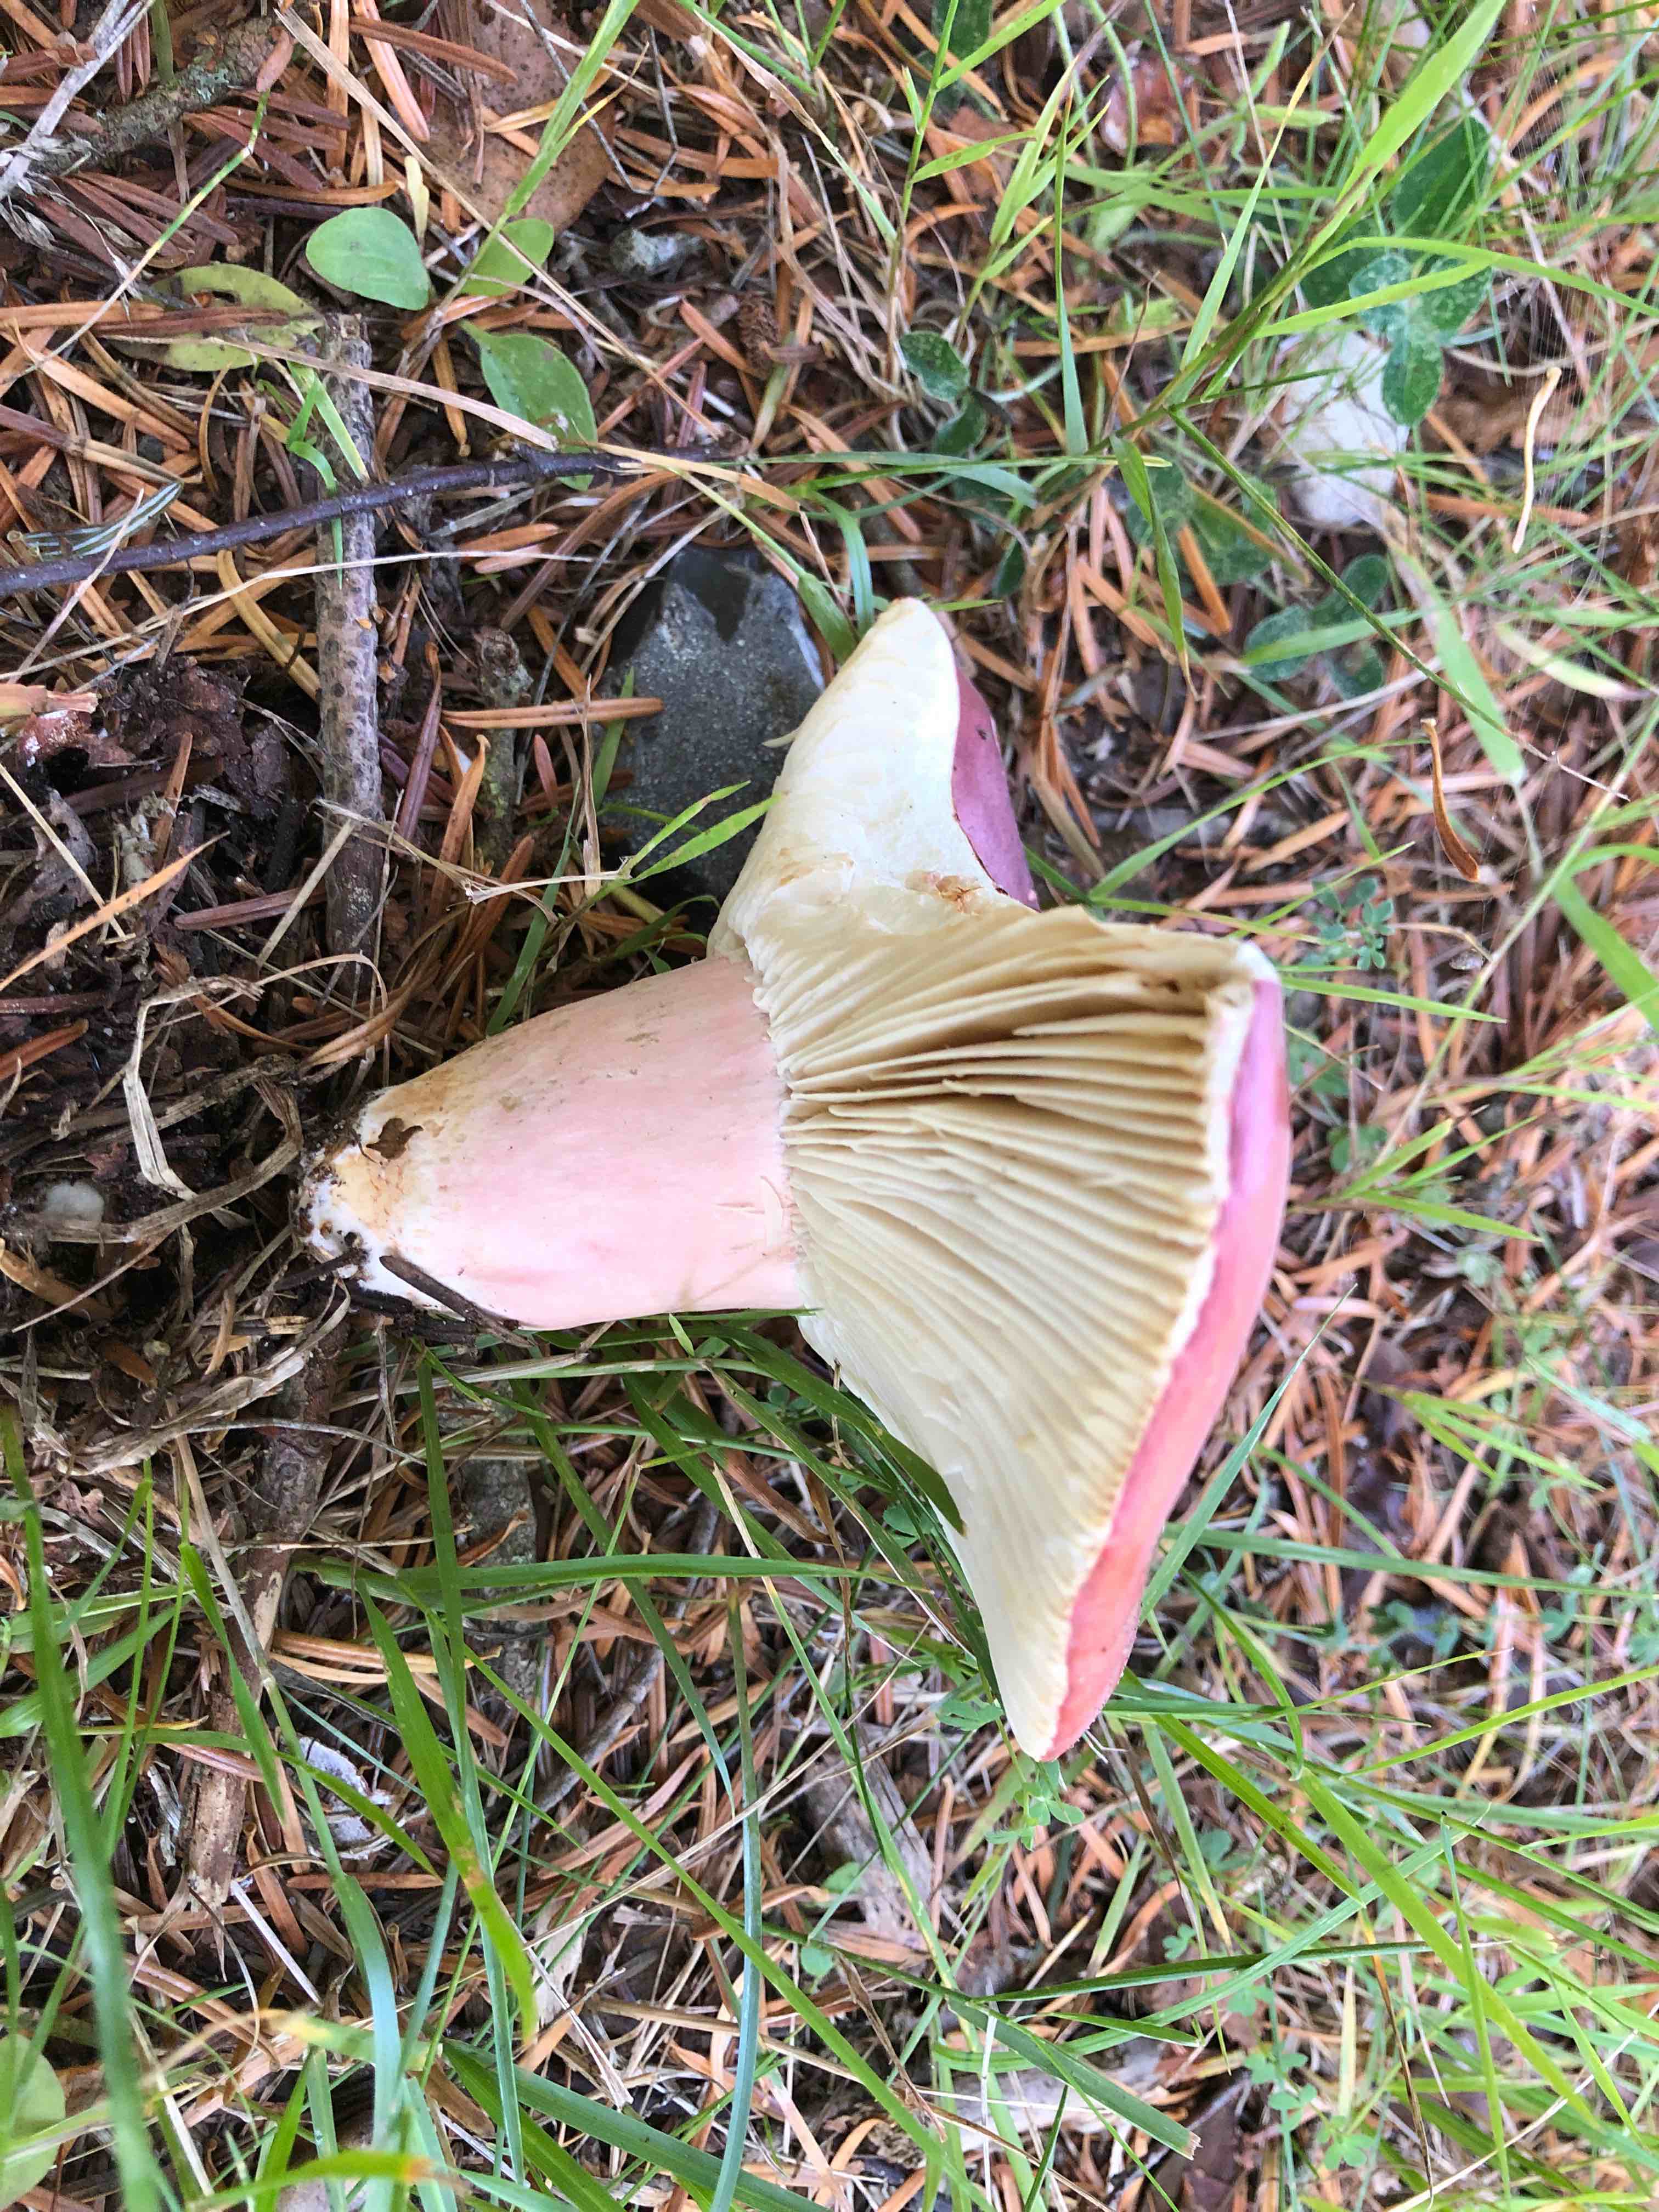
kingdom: Fungi
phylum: Basidiomycota
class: Agaricomycetes
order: Russulales
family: Russulaceae
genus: Russula
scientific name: Russula queletii
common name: Quélets skørhat
